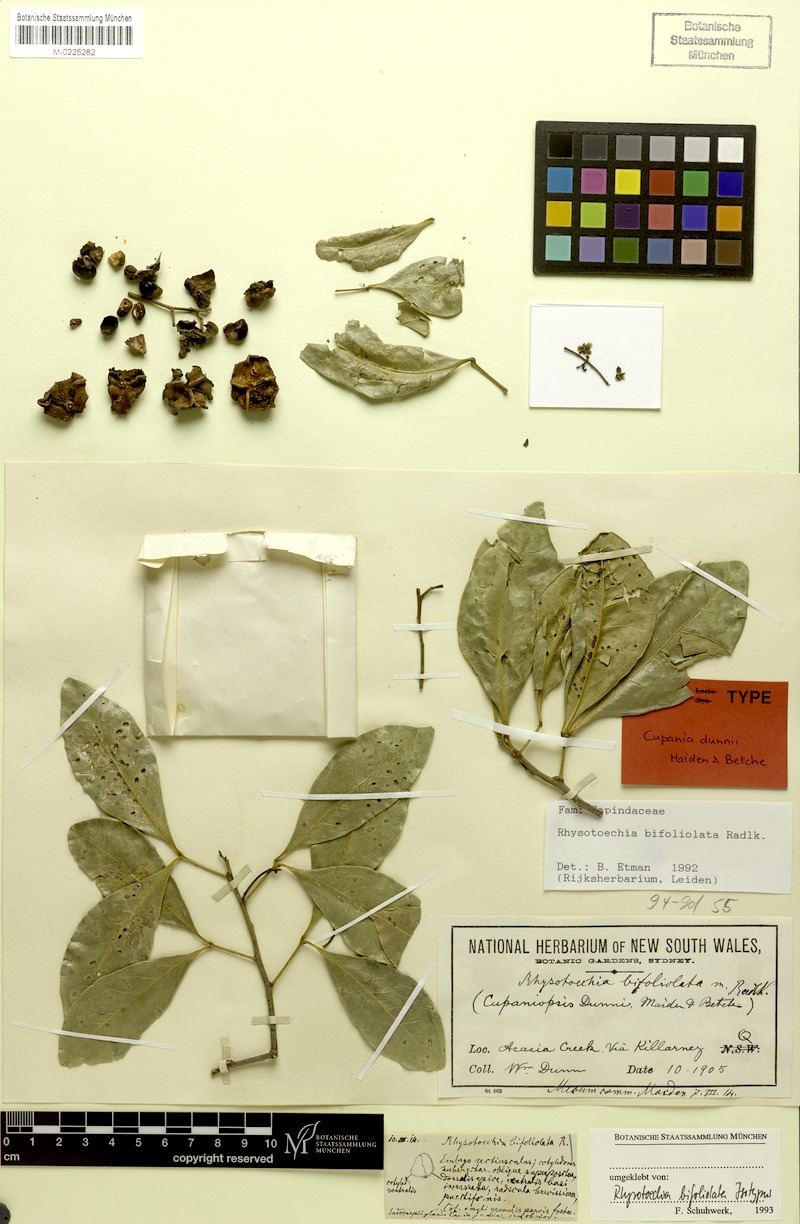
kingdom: Plantae
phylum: Tracheophyta
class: Magnoliopsida
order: Sapindales
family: Sapindaceae
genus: Rhysotoechia
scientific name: Rhysotoechia bifoliolata
